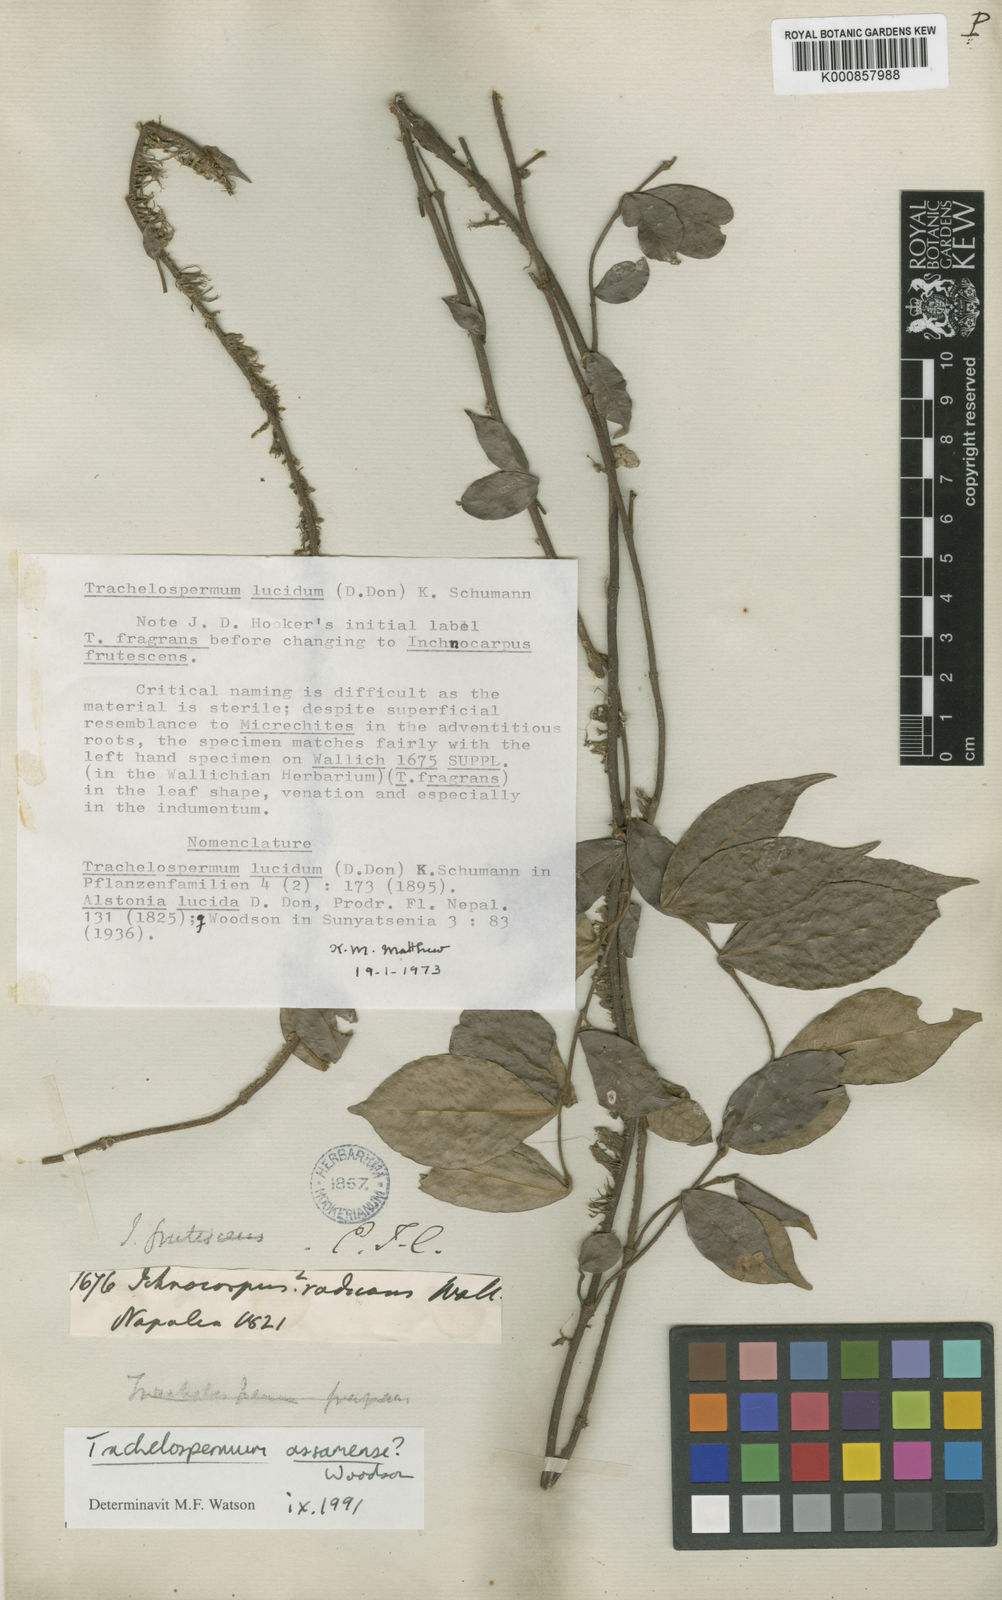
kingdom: Plantae
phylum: Tracheophyta
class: Magnoliopsida
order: Gentianales
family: Apocynaceae
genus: Trachelospermum
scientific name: Trachelospermum
